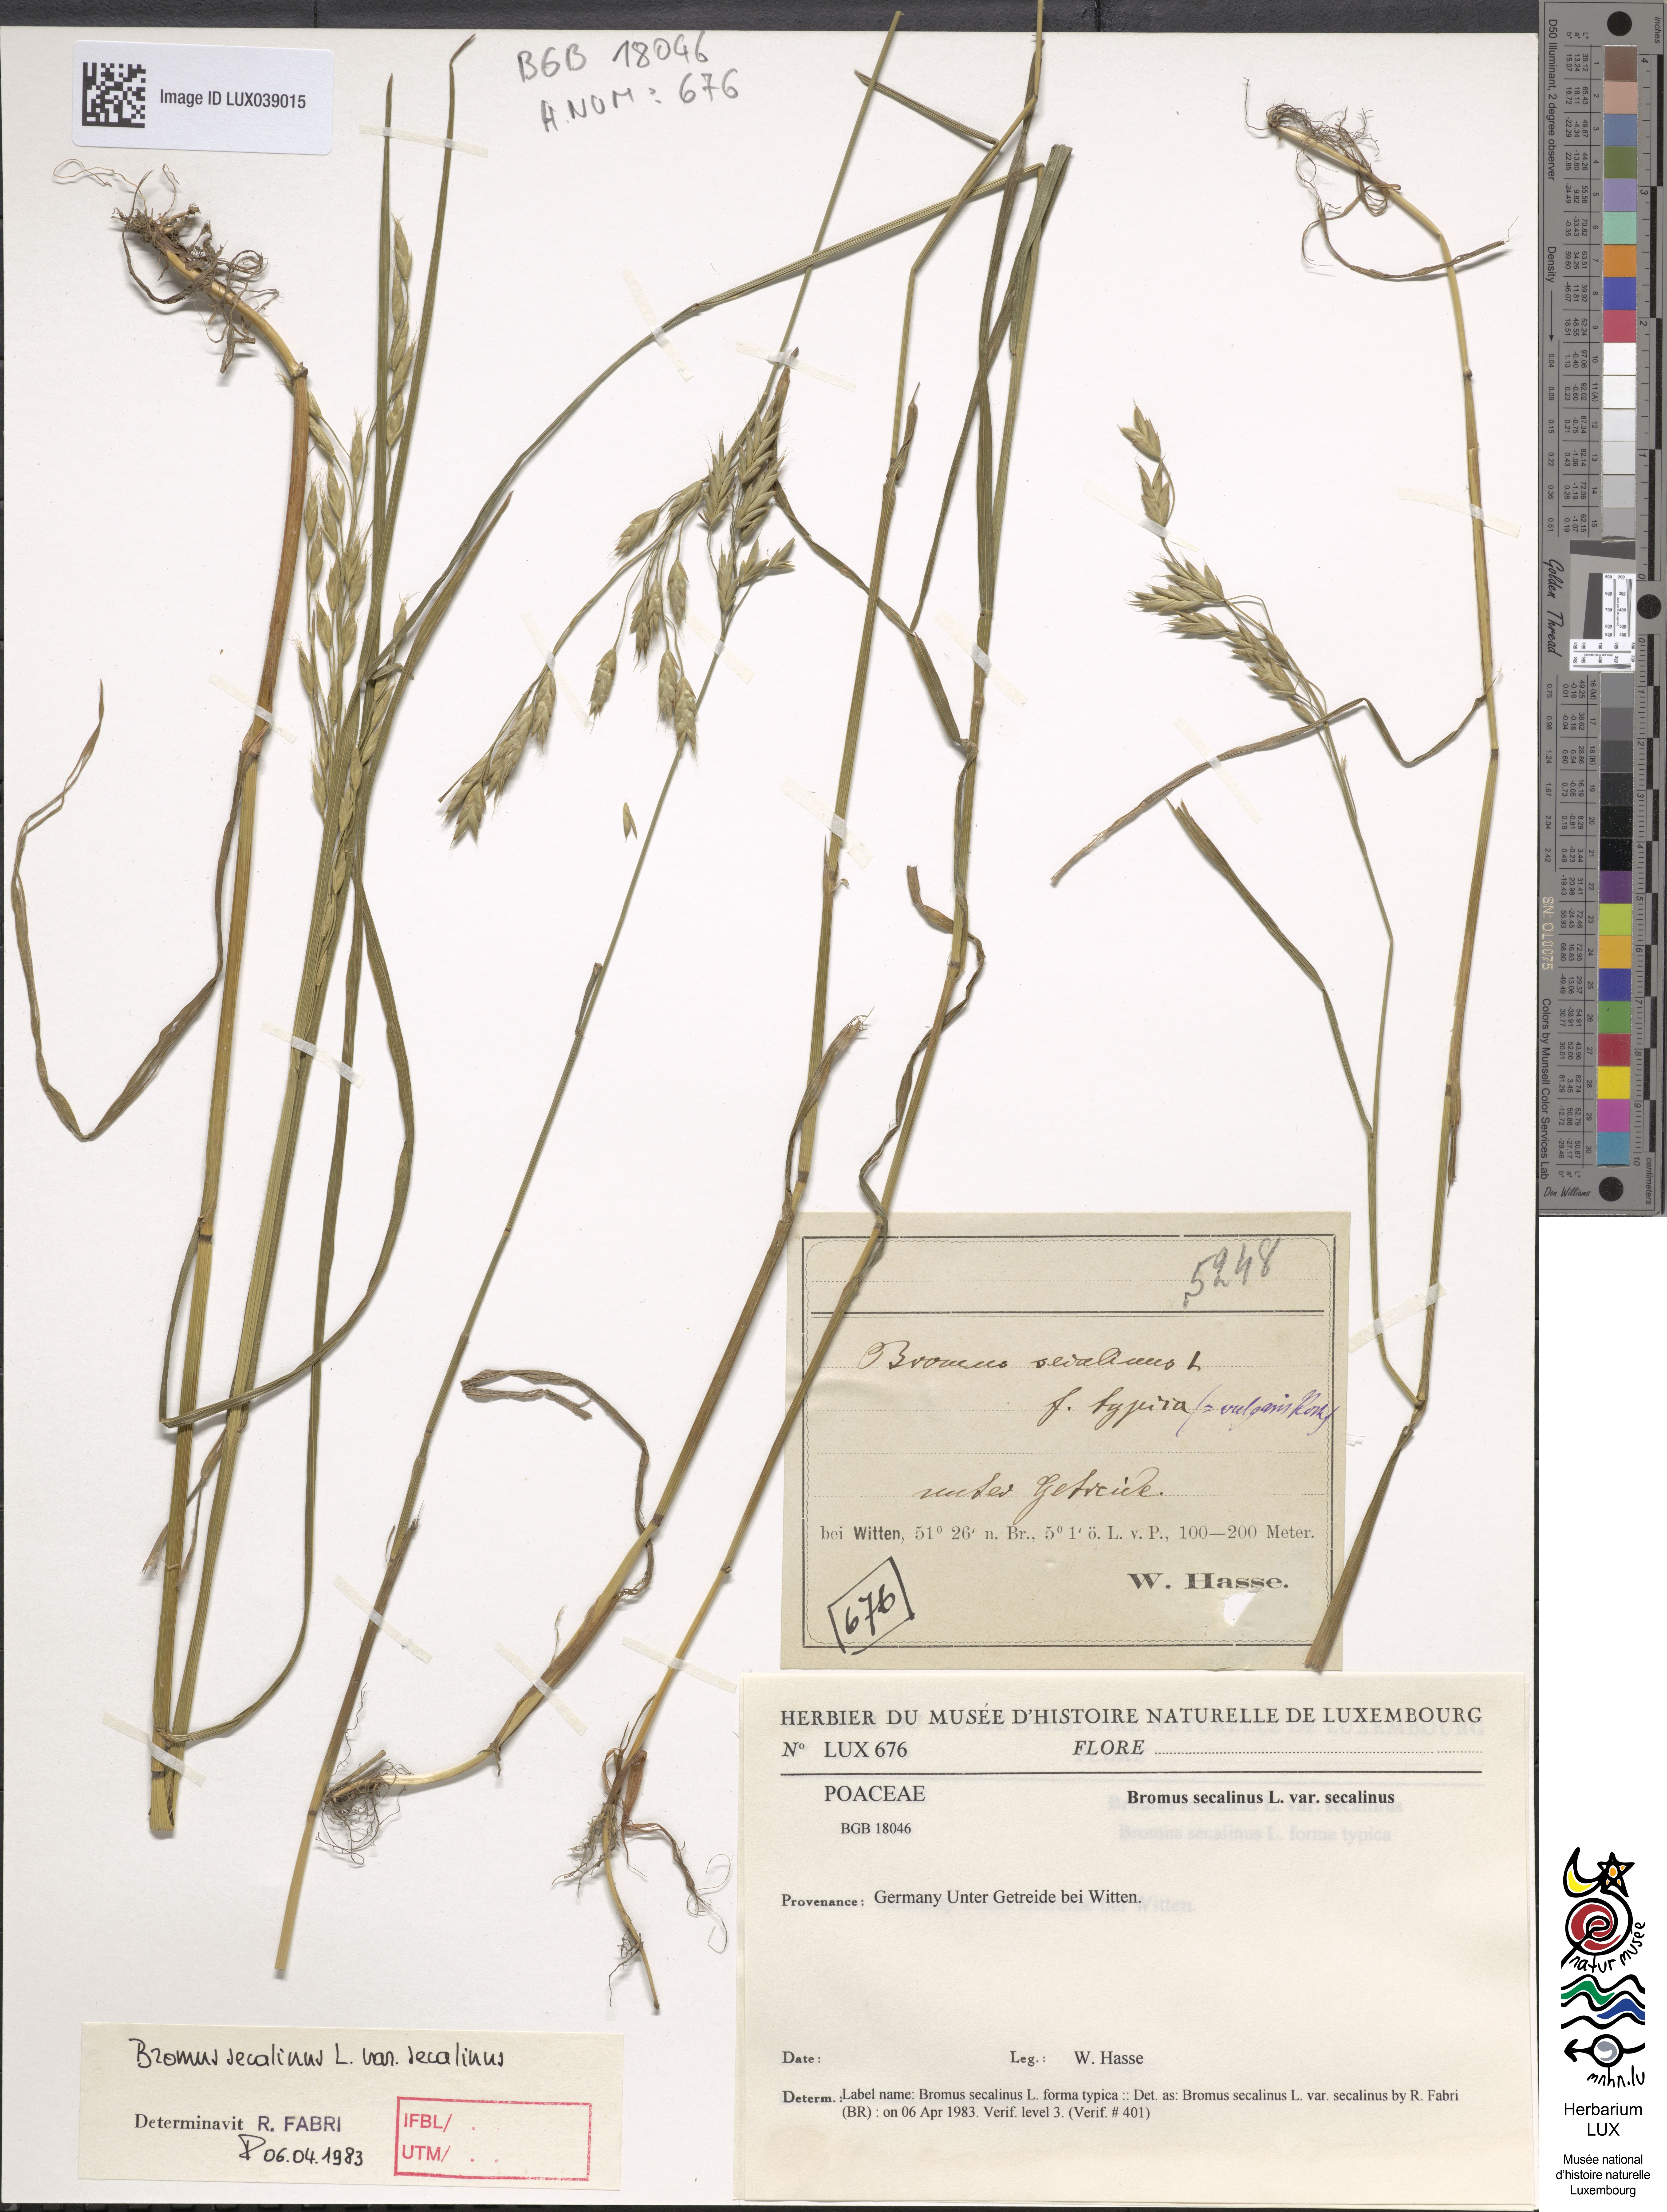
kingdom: Plantae
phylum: Tracheophyta
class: Liliopsida
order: Poales
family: Poaceae
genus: Bromus
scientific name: Bromus secalinus
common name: Rye brome
